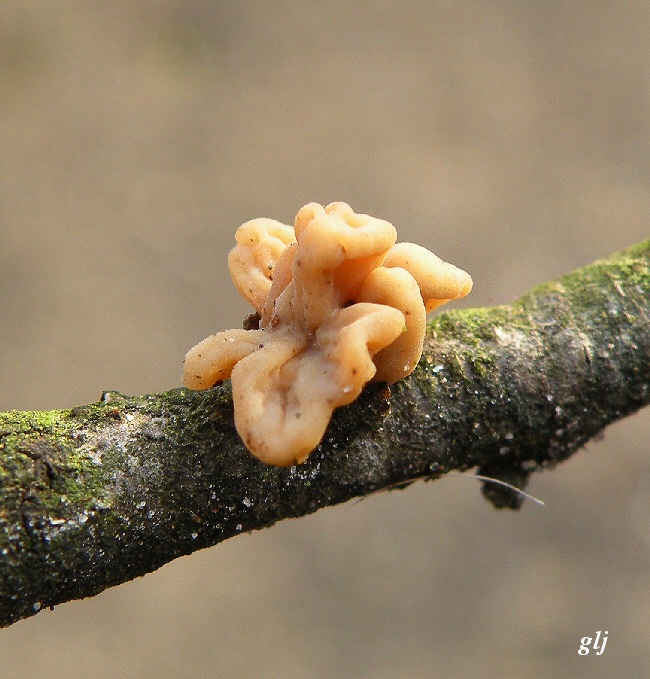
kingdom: Fungi
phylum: Basidiomycota
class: Agaricomycetes
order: Agaricales
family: Typhulaceae
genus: Typhula
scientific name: Typhula fistulosa
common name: pibet rørkølle
